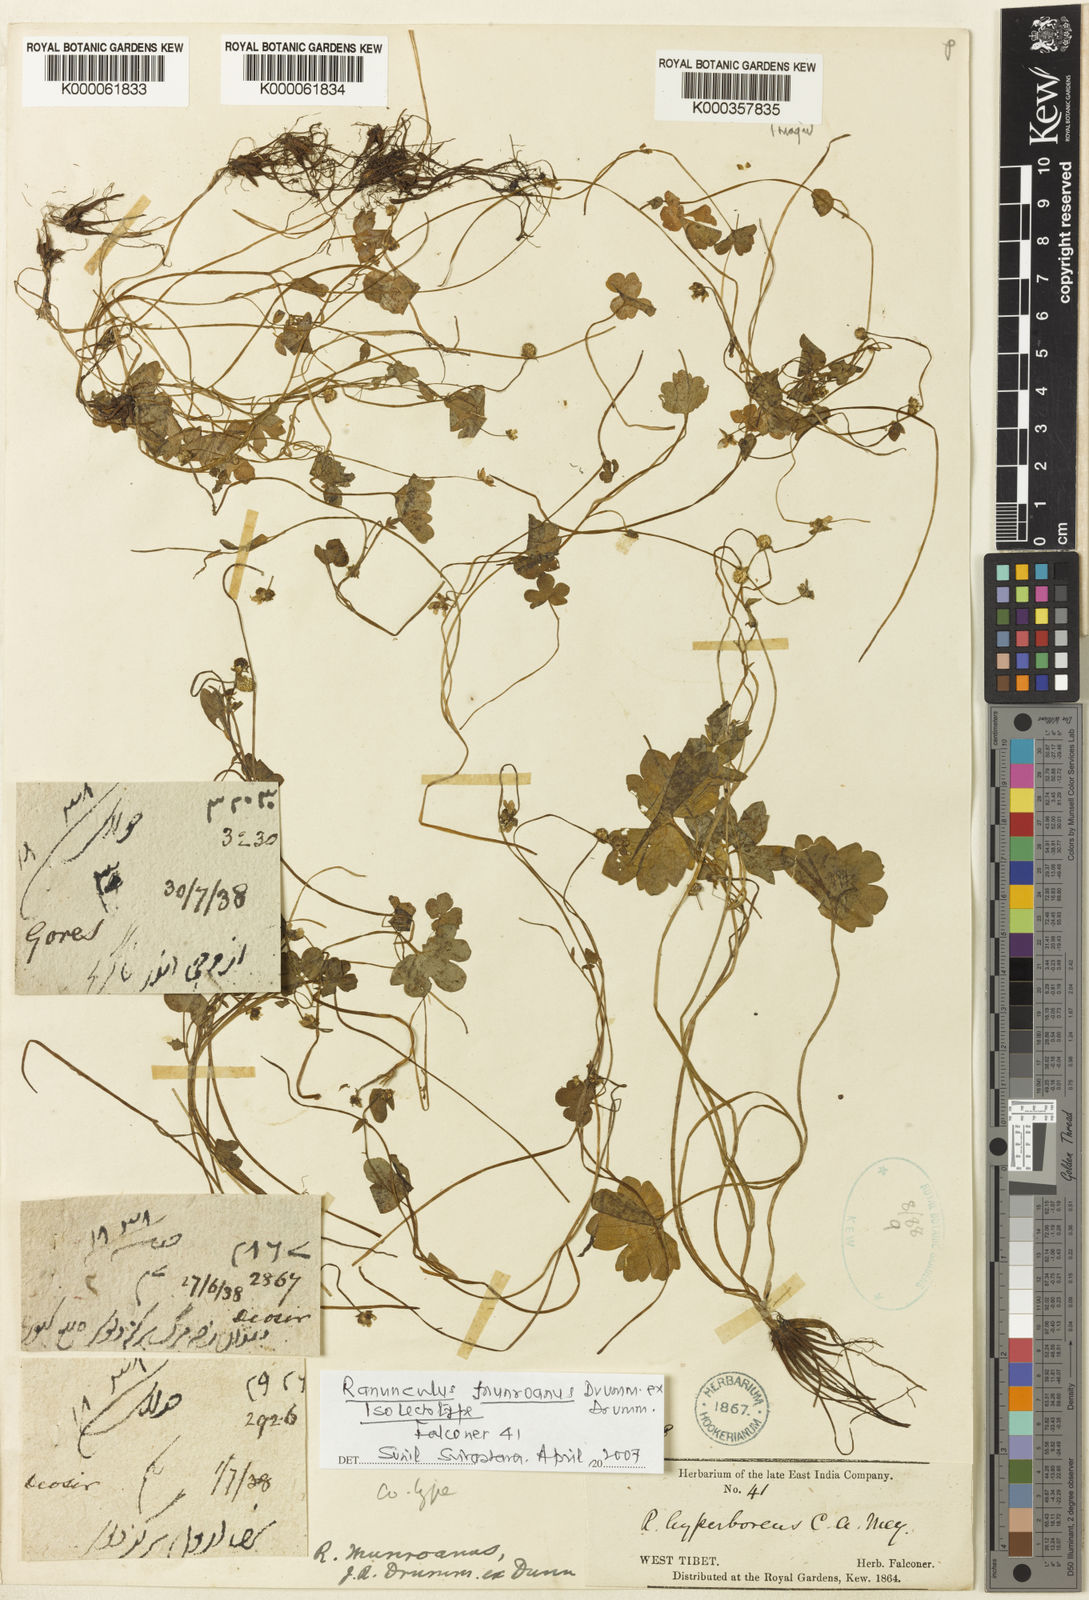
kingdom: Plantae
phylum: Tracheophyta
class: Magnoliopsida
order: Ranunculales
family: Ranunculaceae
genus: Ranunculus
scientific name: Ranunculus munroanus
